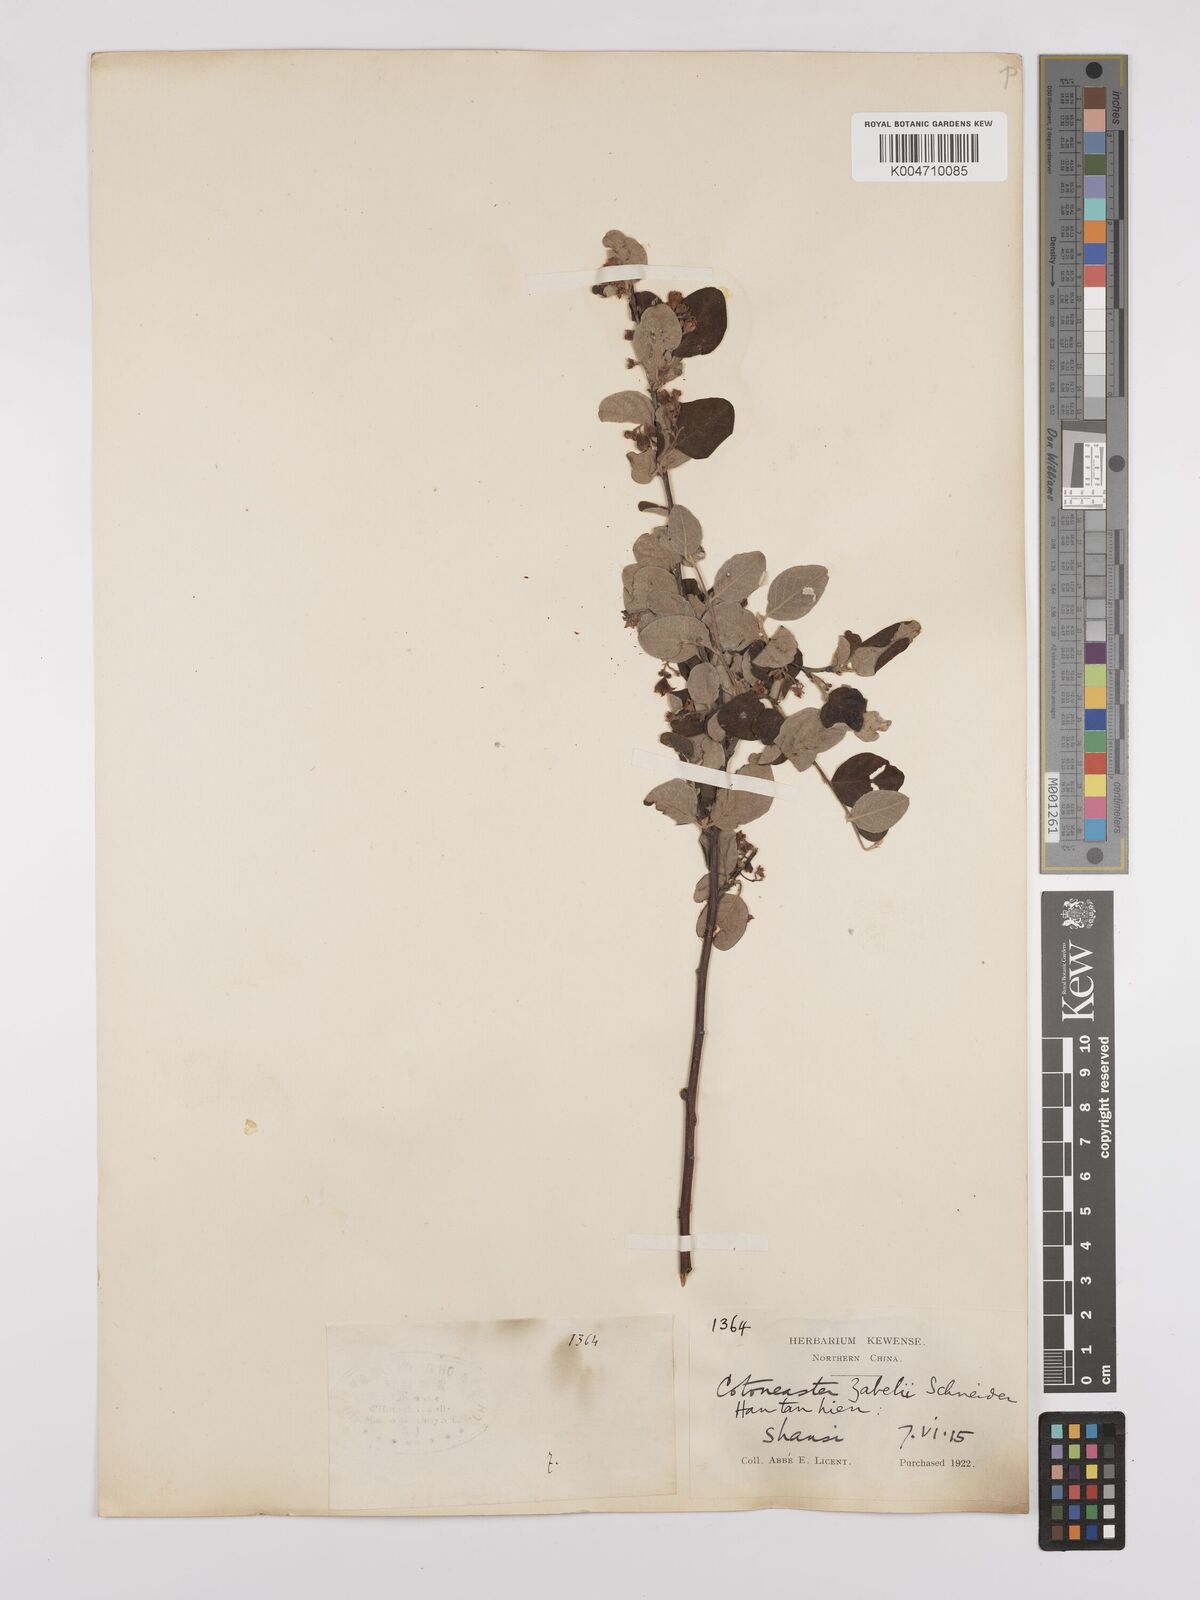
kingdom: Plantae
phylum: Tracheophyta
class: Magnoliopsida
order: Rosales
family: Rosaceae
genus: Cotoneaster
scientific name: Cotoneaster zabelii
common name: Cherryred cotoneaster
